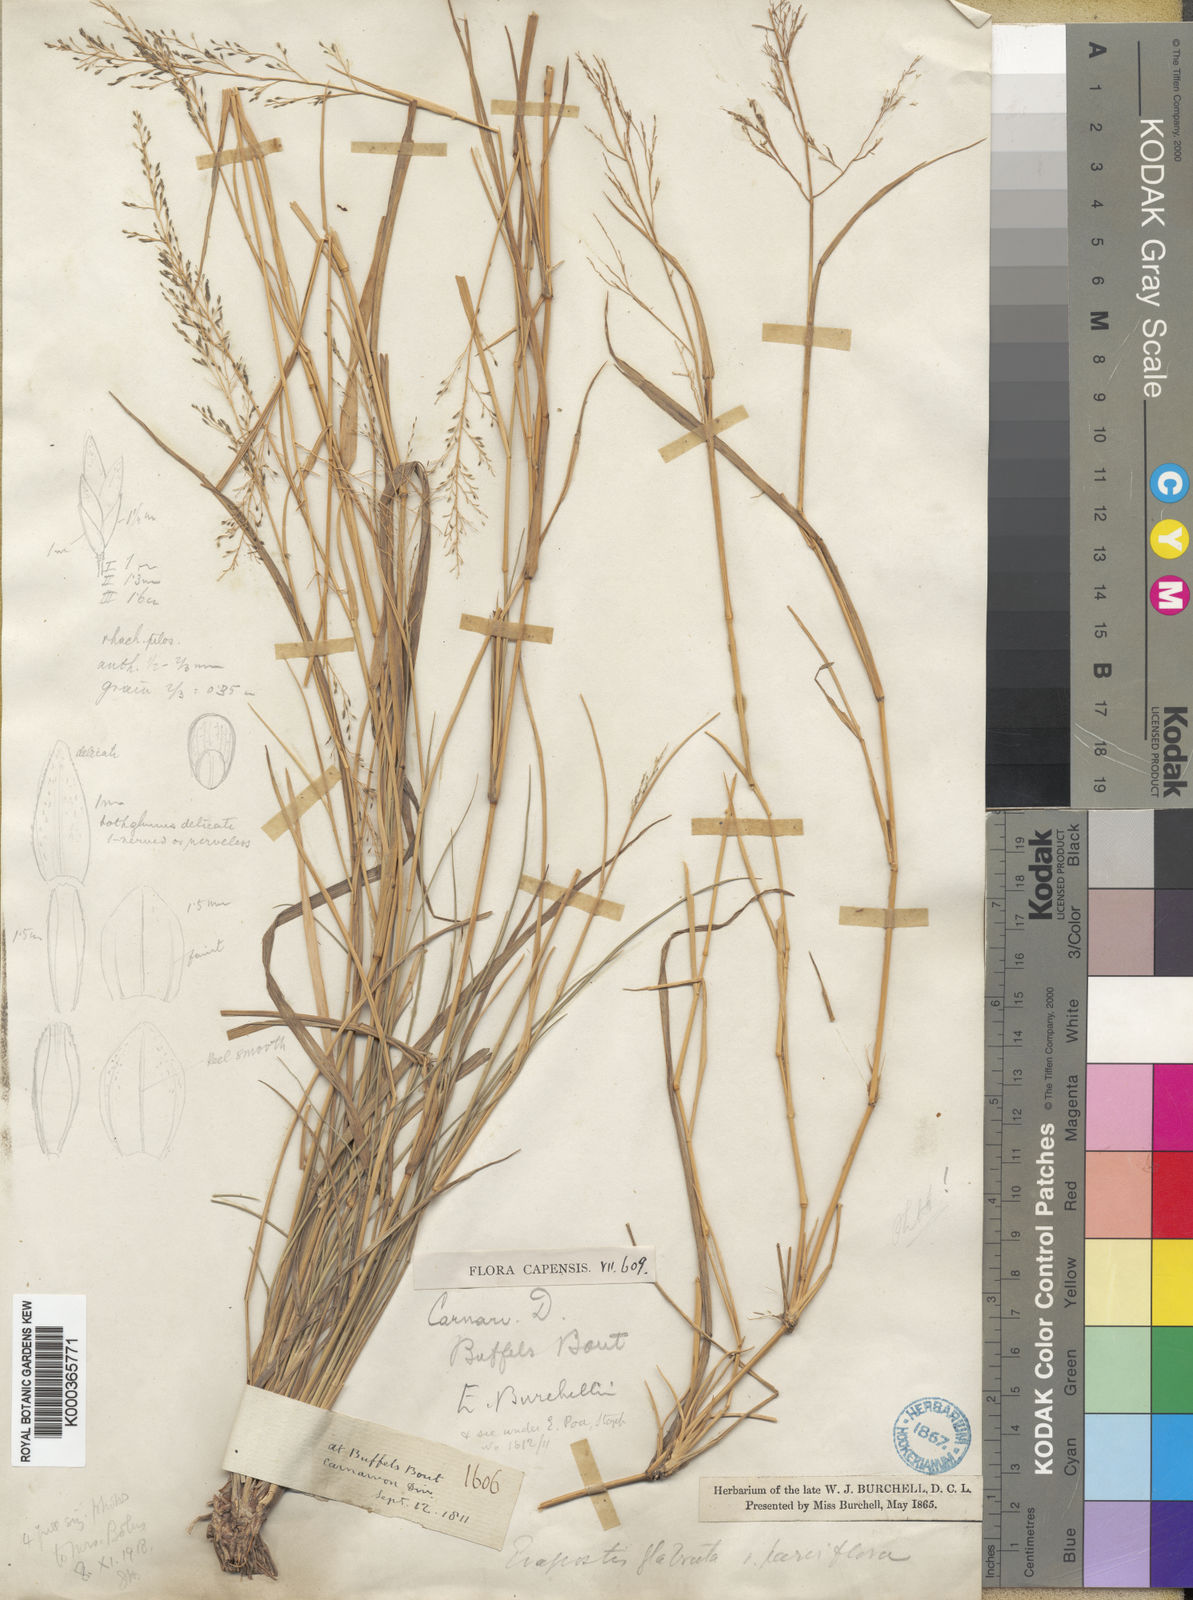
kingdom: Plantae
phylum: Tracheophyta
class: Liliopsida
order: Poales
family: Poaceae
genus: Eragrostis
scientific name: Eragrostis micrantha
